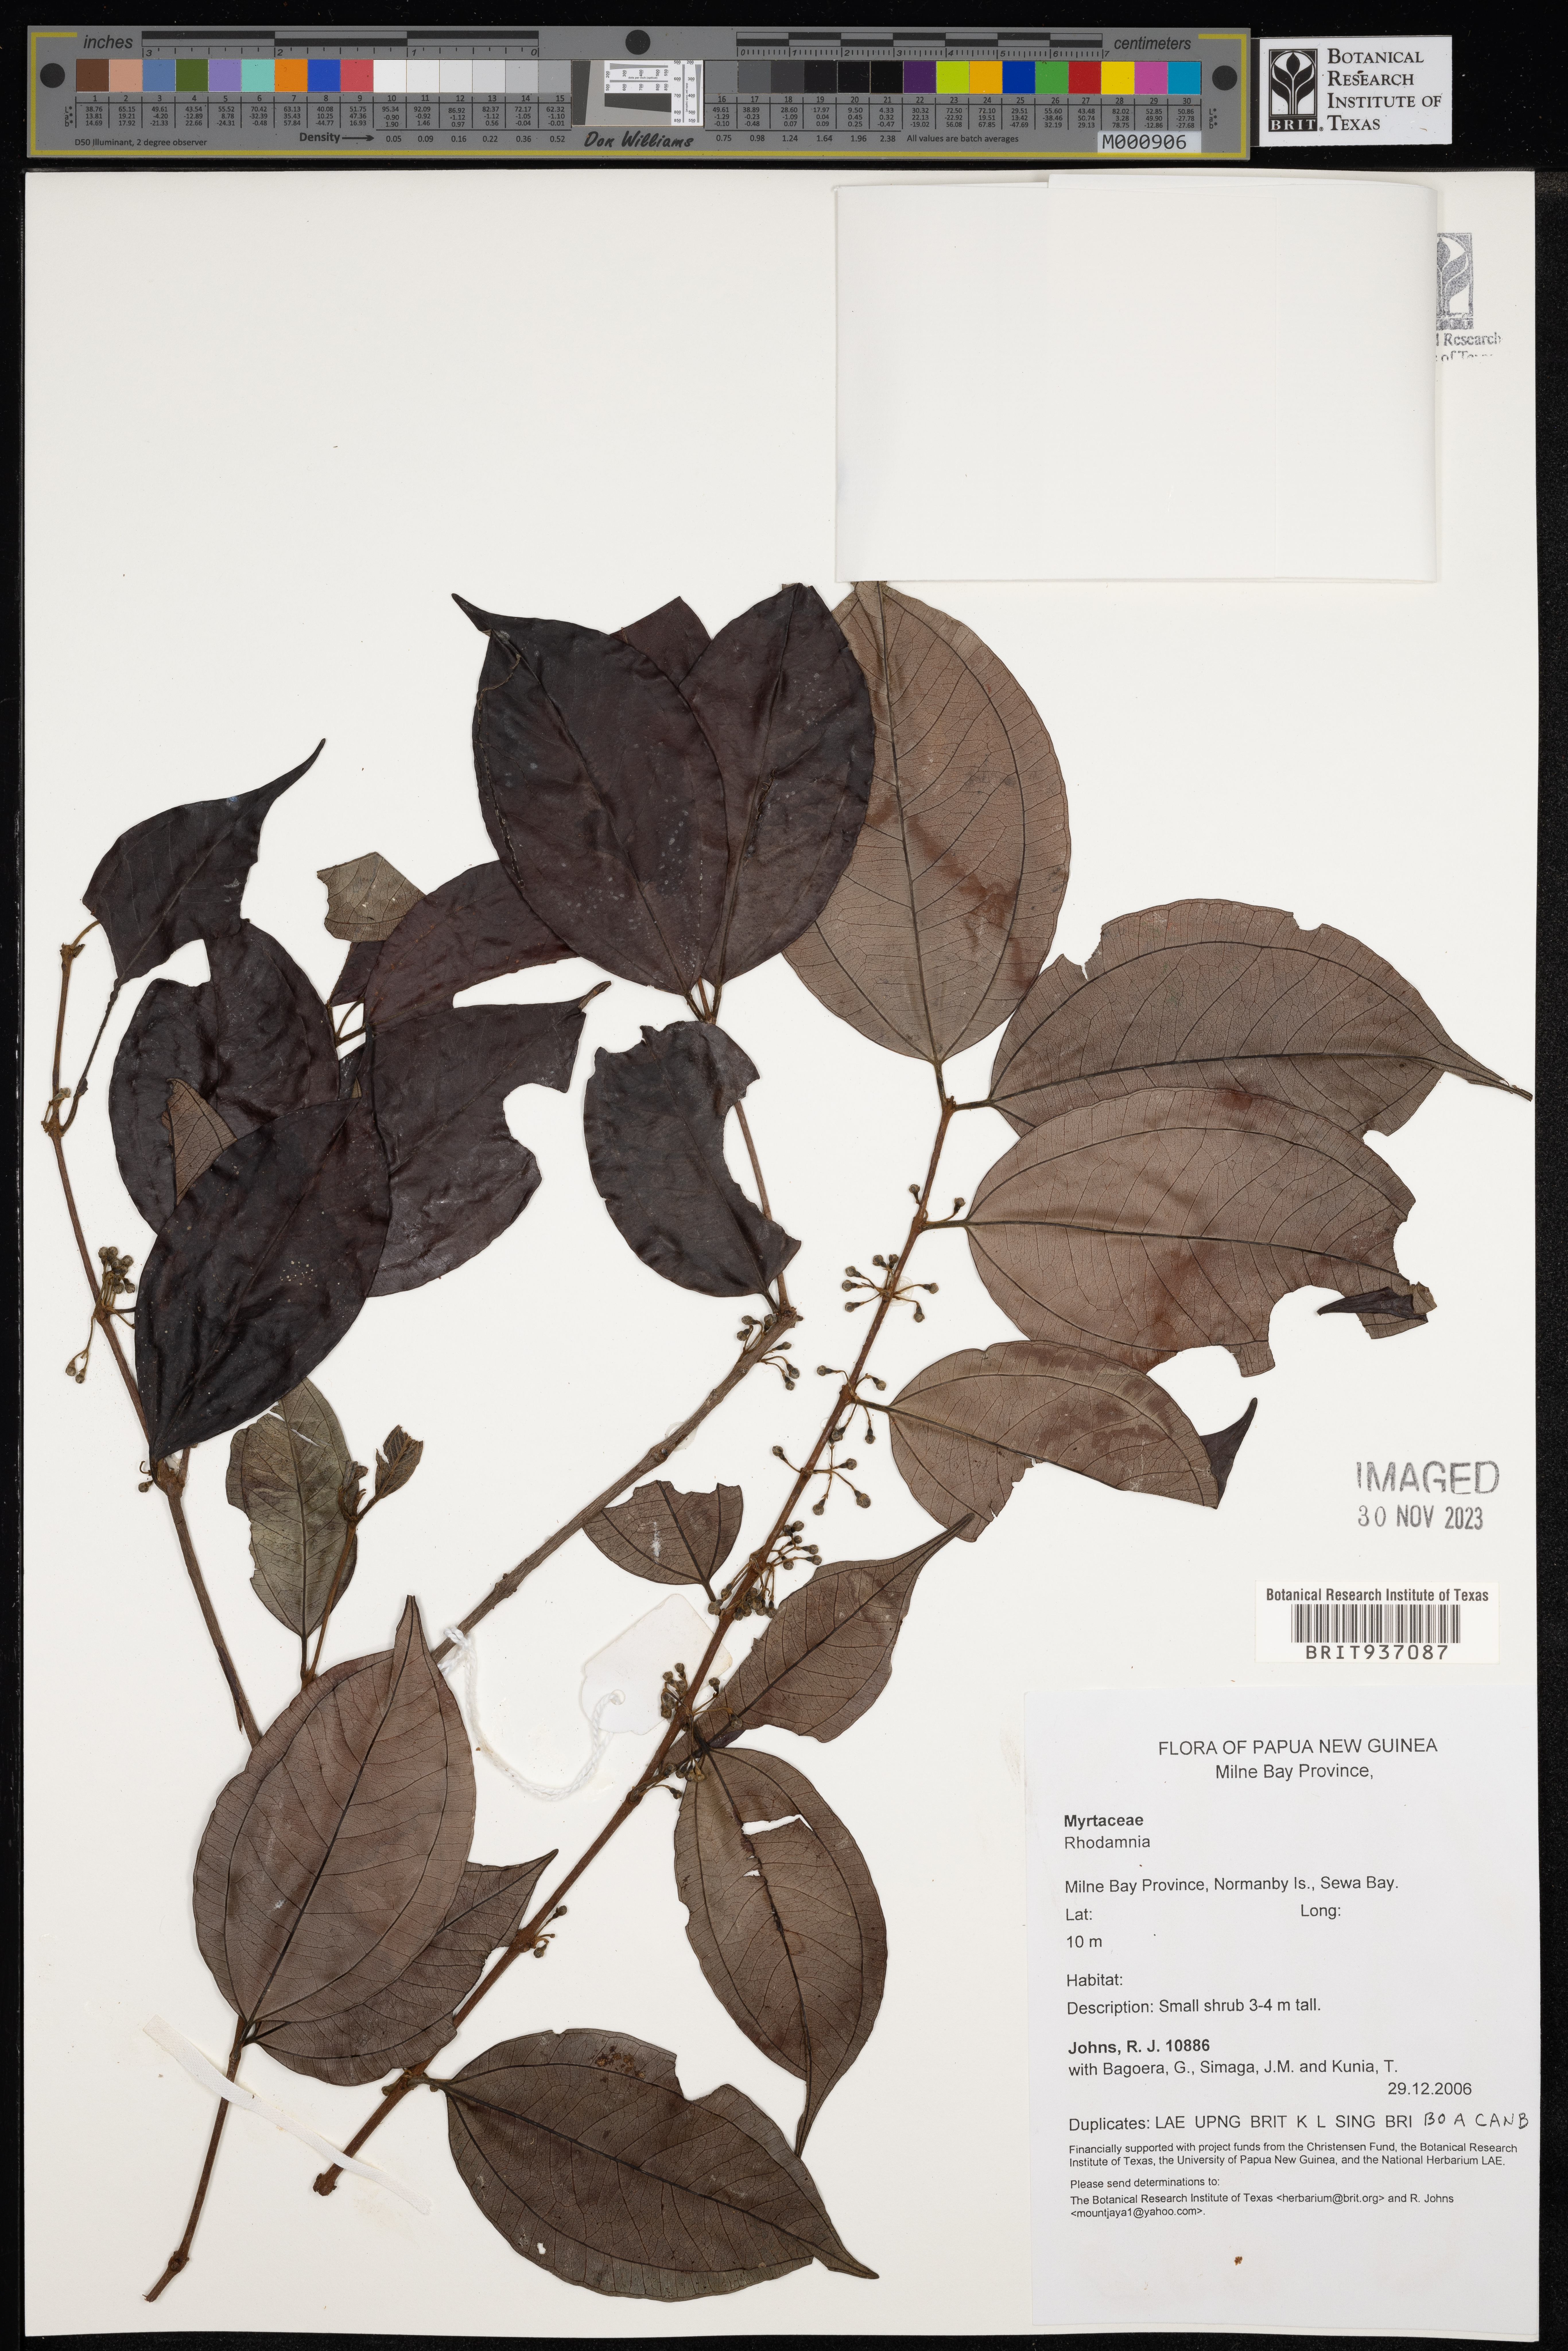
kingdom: Plantae
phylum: Tracheophyta
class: Magnoliopsida
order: Myrtales
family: Myrtaceae
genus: Rhodamnia
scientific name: Rhodamnia
